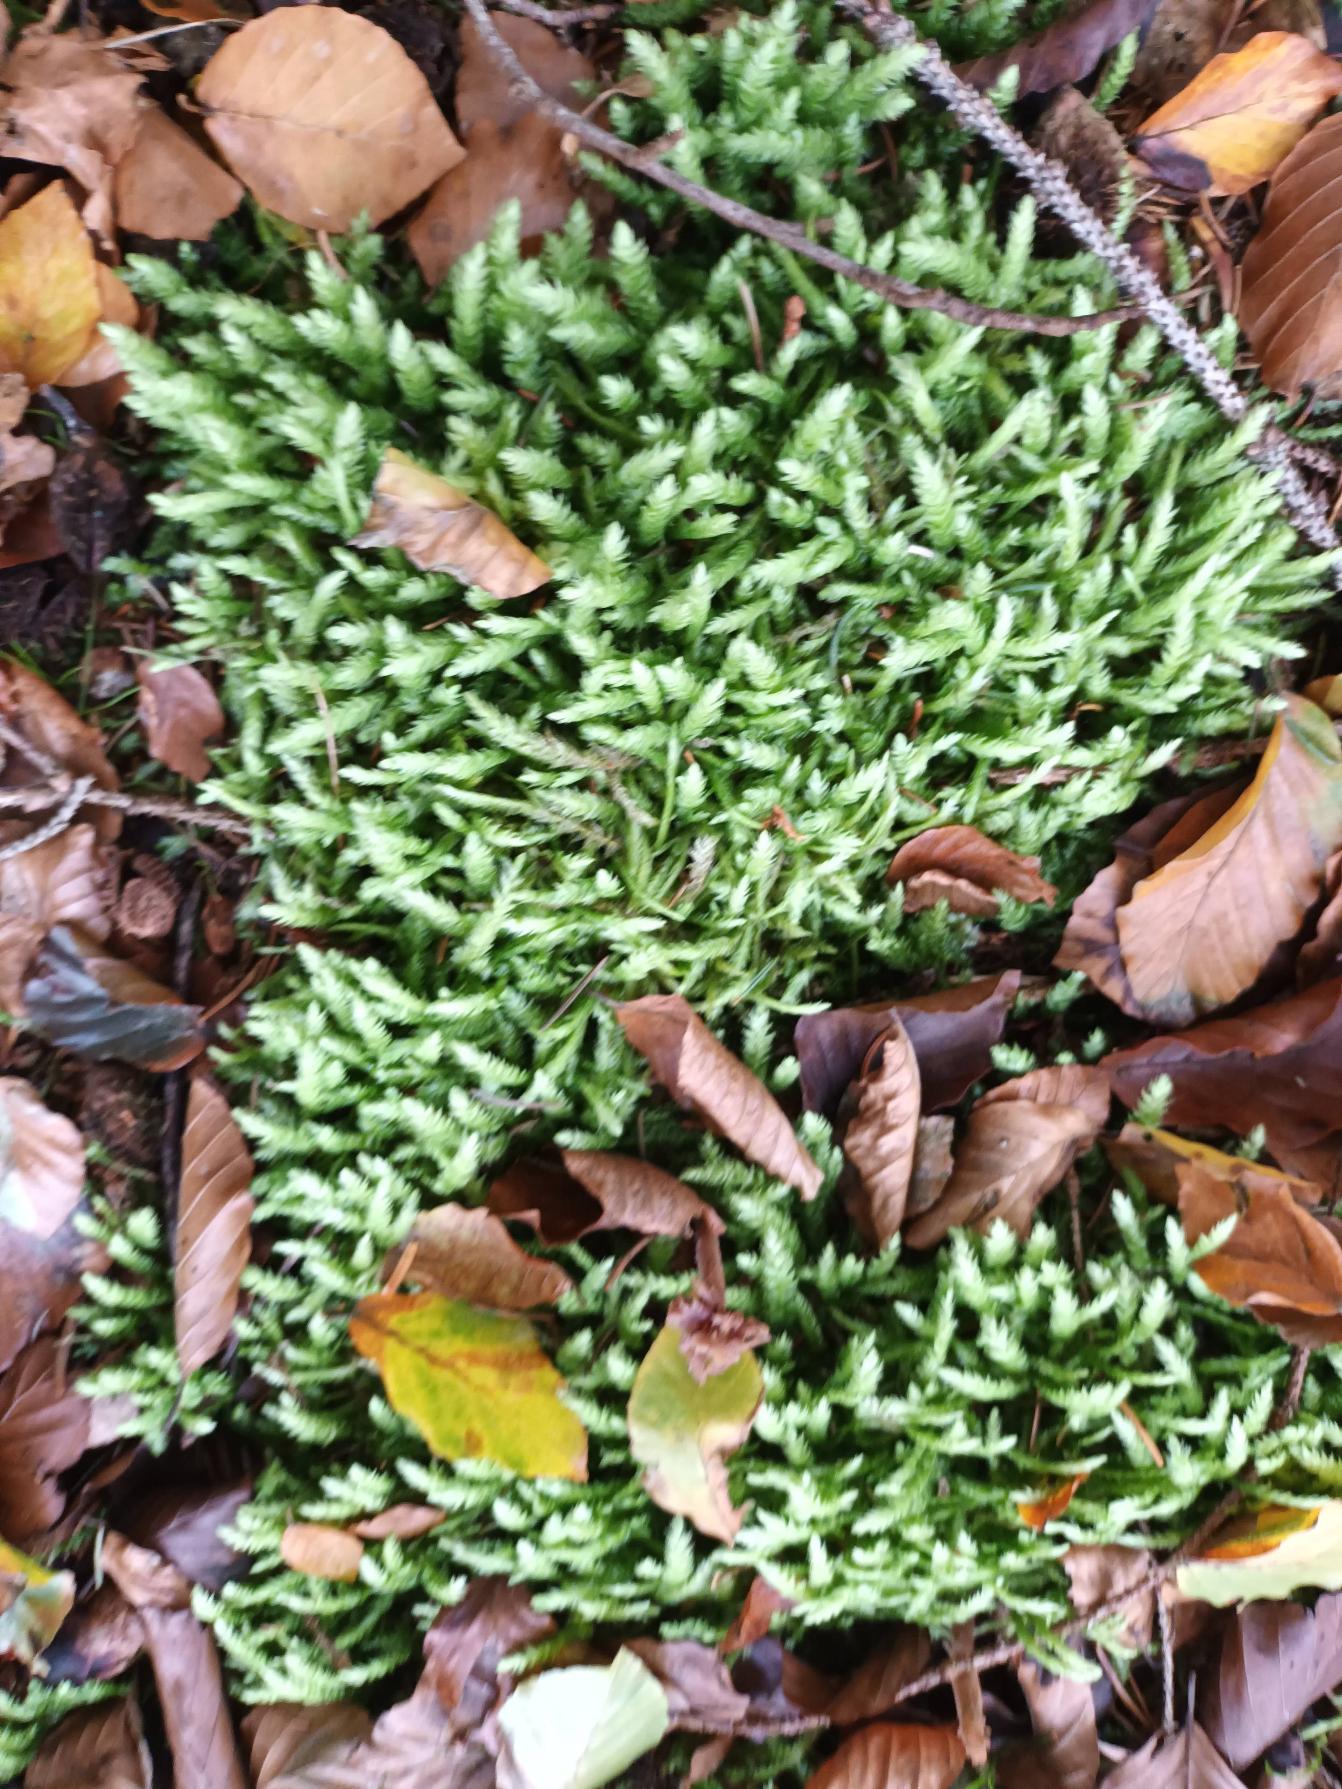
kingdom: Plantae
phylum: Bryophyta
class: Bryopsida
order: Hypnales
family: Plagiotheciaceae
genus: Plagiothecium
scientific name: Plagiothecium undulatum
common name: Bølget tæppemos
